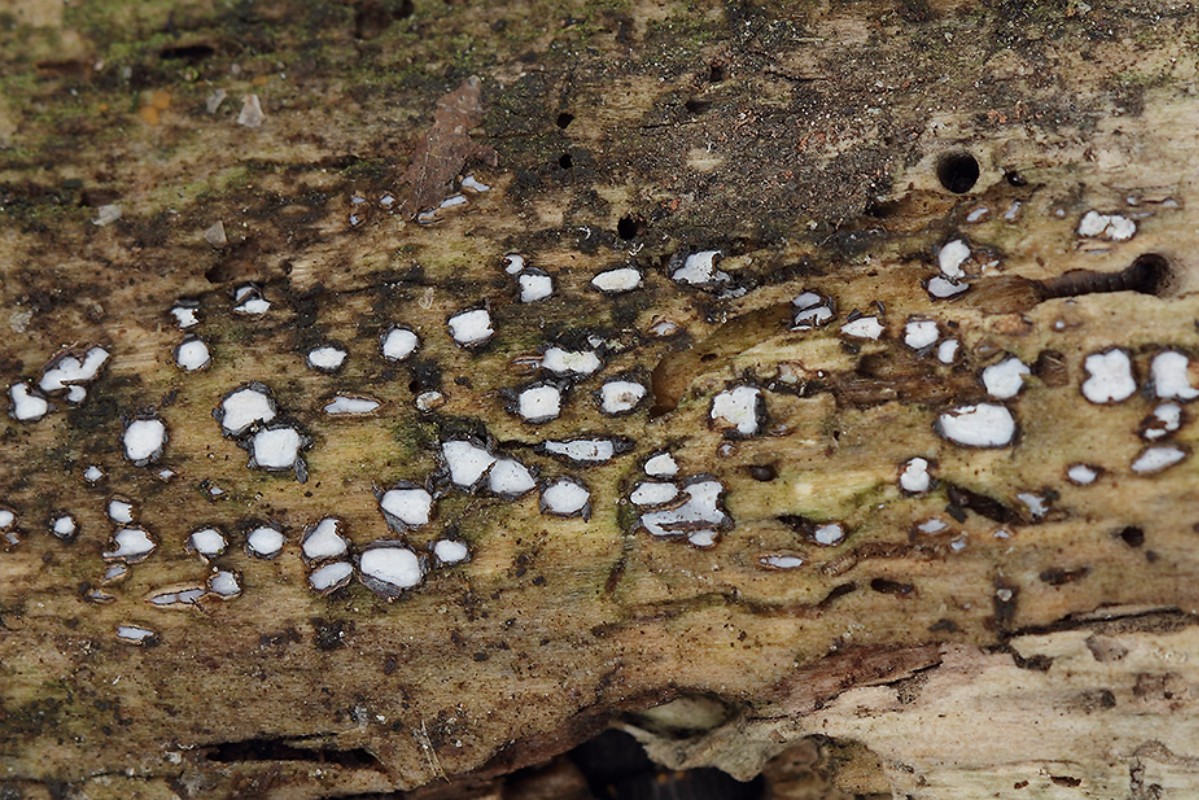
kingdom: Fungi
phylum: Ascomycota
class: Leotiomycetes
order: Chaetomellales
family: Marthamycetaceae
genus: Propolis
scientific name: Propolis farinosa
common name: almindelig vedsprængerskive
